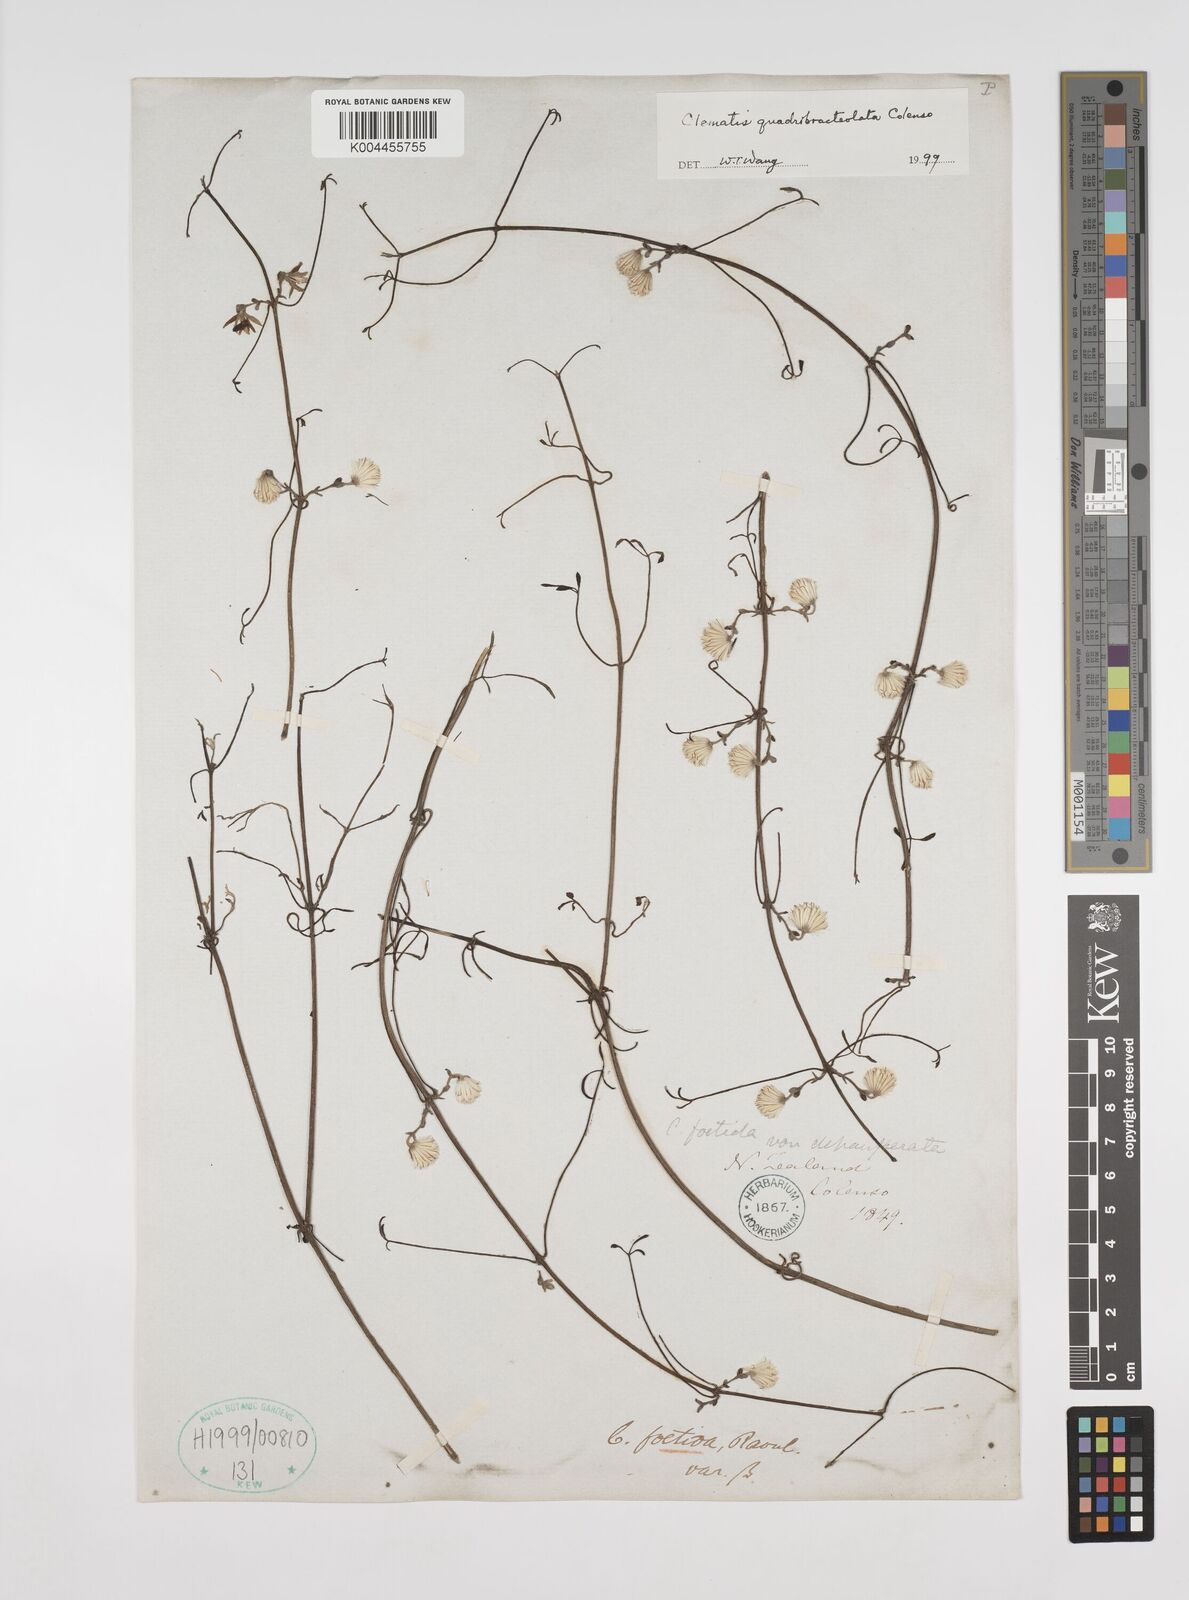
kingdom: Plantae
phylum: Tracheophyta
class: Magnoliopsida
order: Ranunculales
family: Ranunculaceae
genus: Clematis
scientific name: Clematis quadribracteolata
